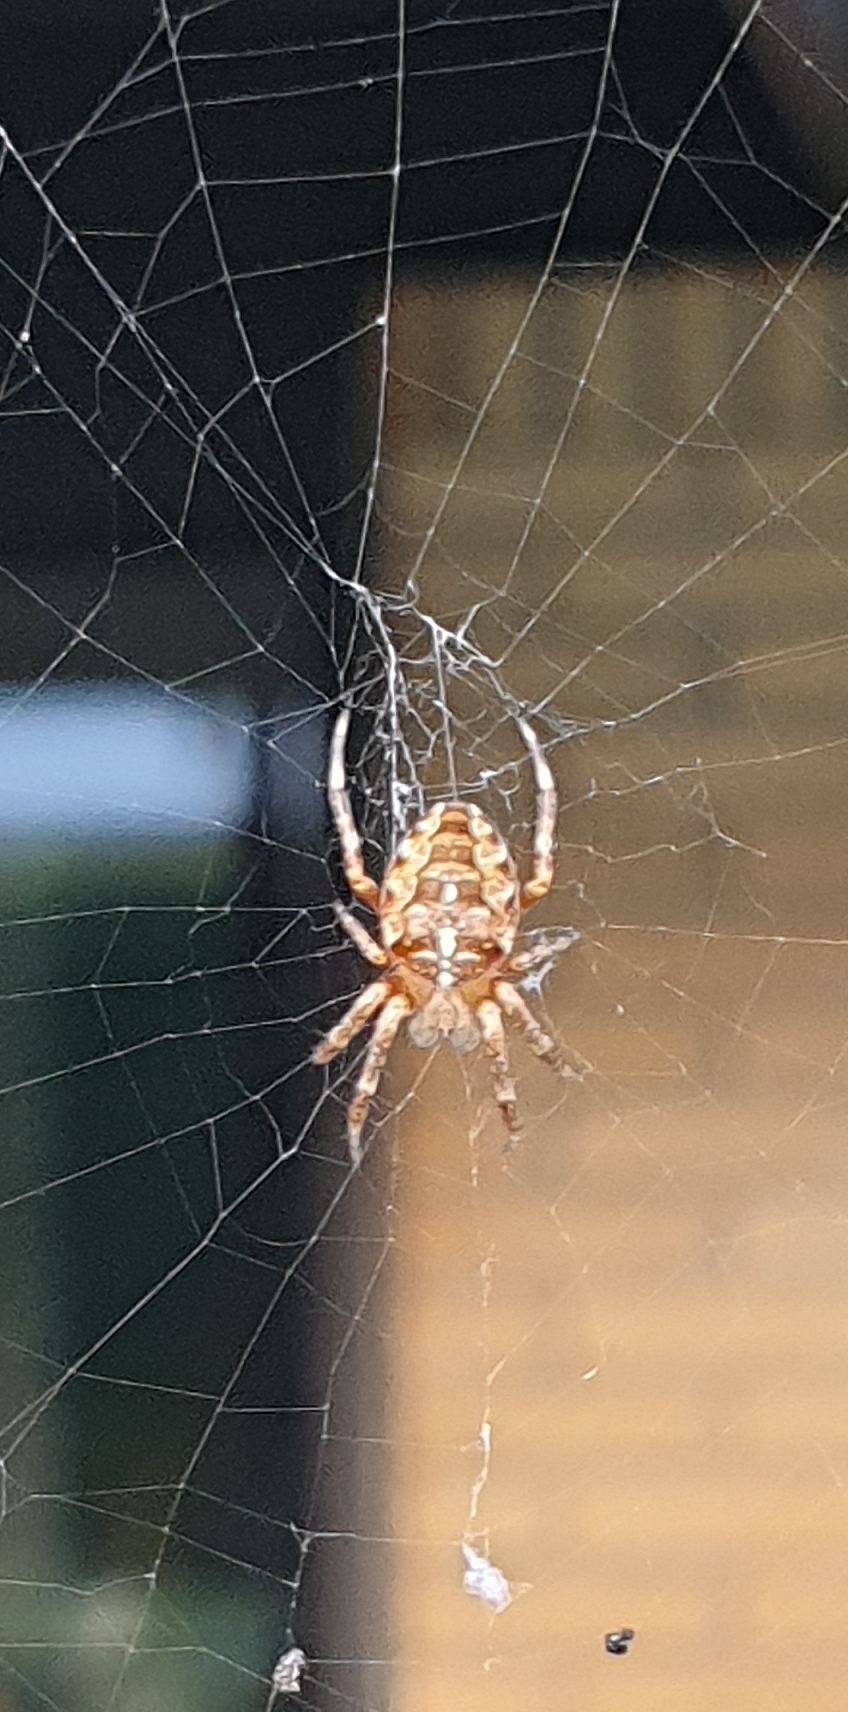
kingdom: Animalia
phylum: Arthropoda
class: Arachnida
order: Araneae
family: Araneidae
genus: Araneus
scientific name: Araneus diadematus
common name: Korsedderkop
